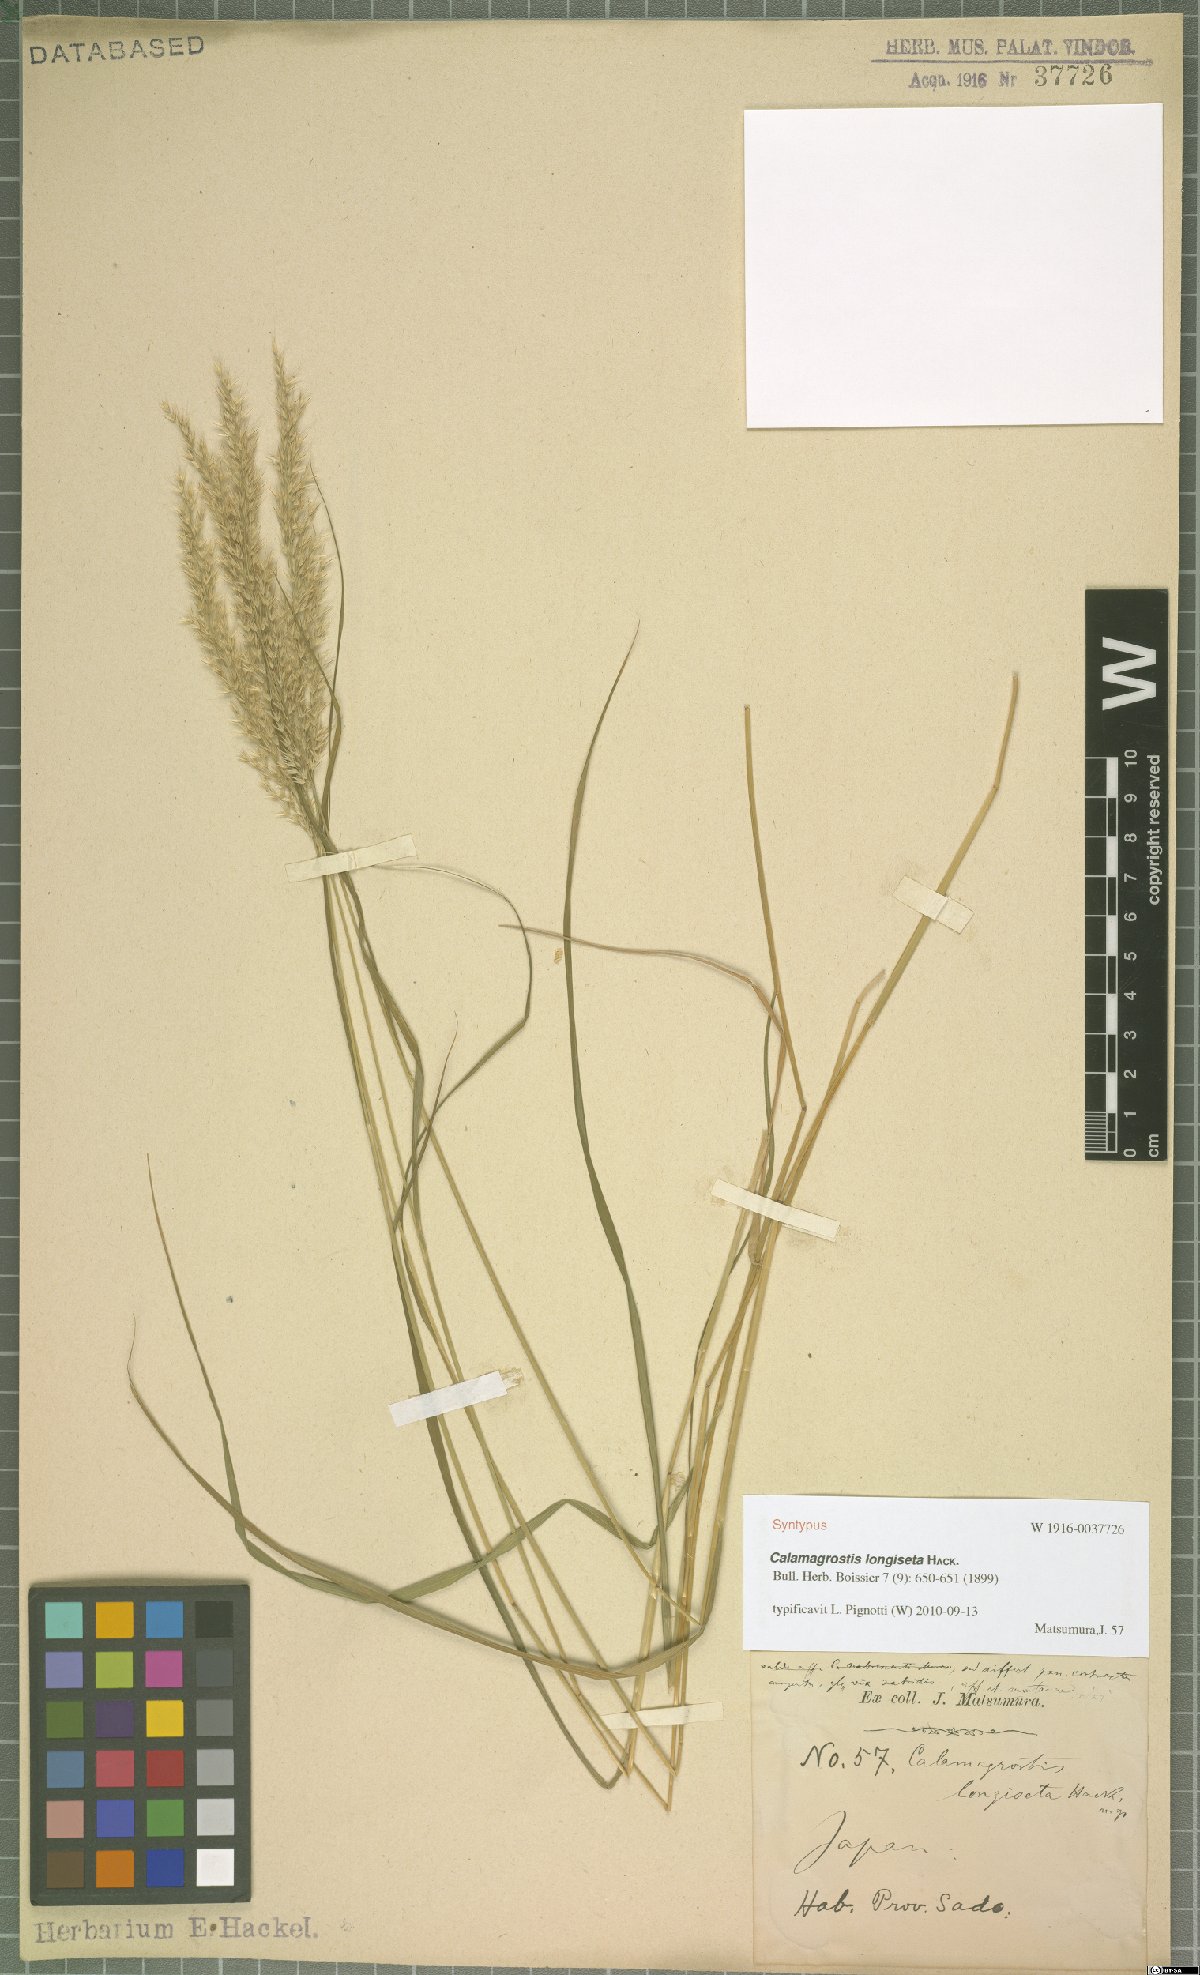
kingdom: Plantae
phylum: Tracheophyta
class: Liliopsida
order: Poales
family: Poaceae
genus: Calamagrostis
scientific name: Calamagrostis longiseta
